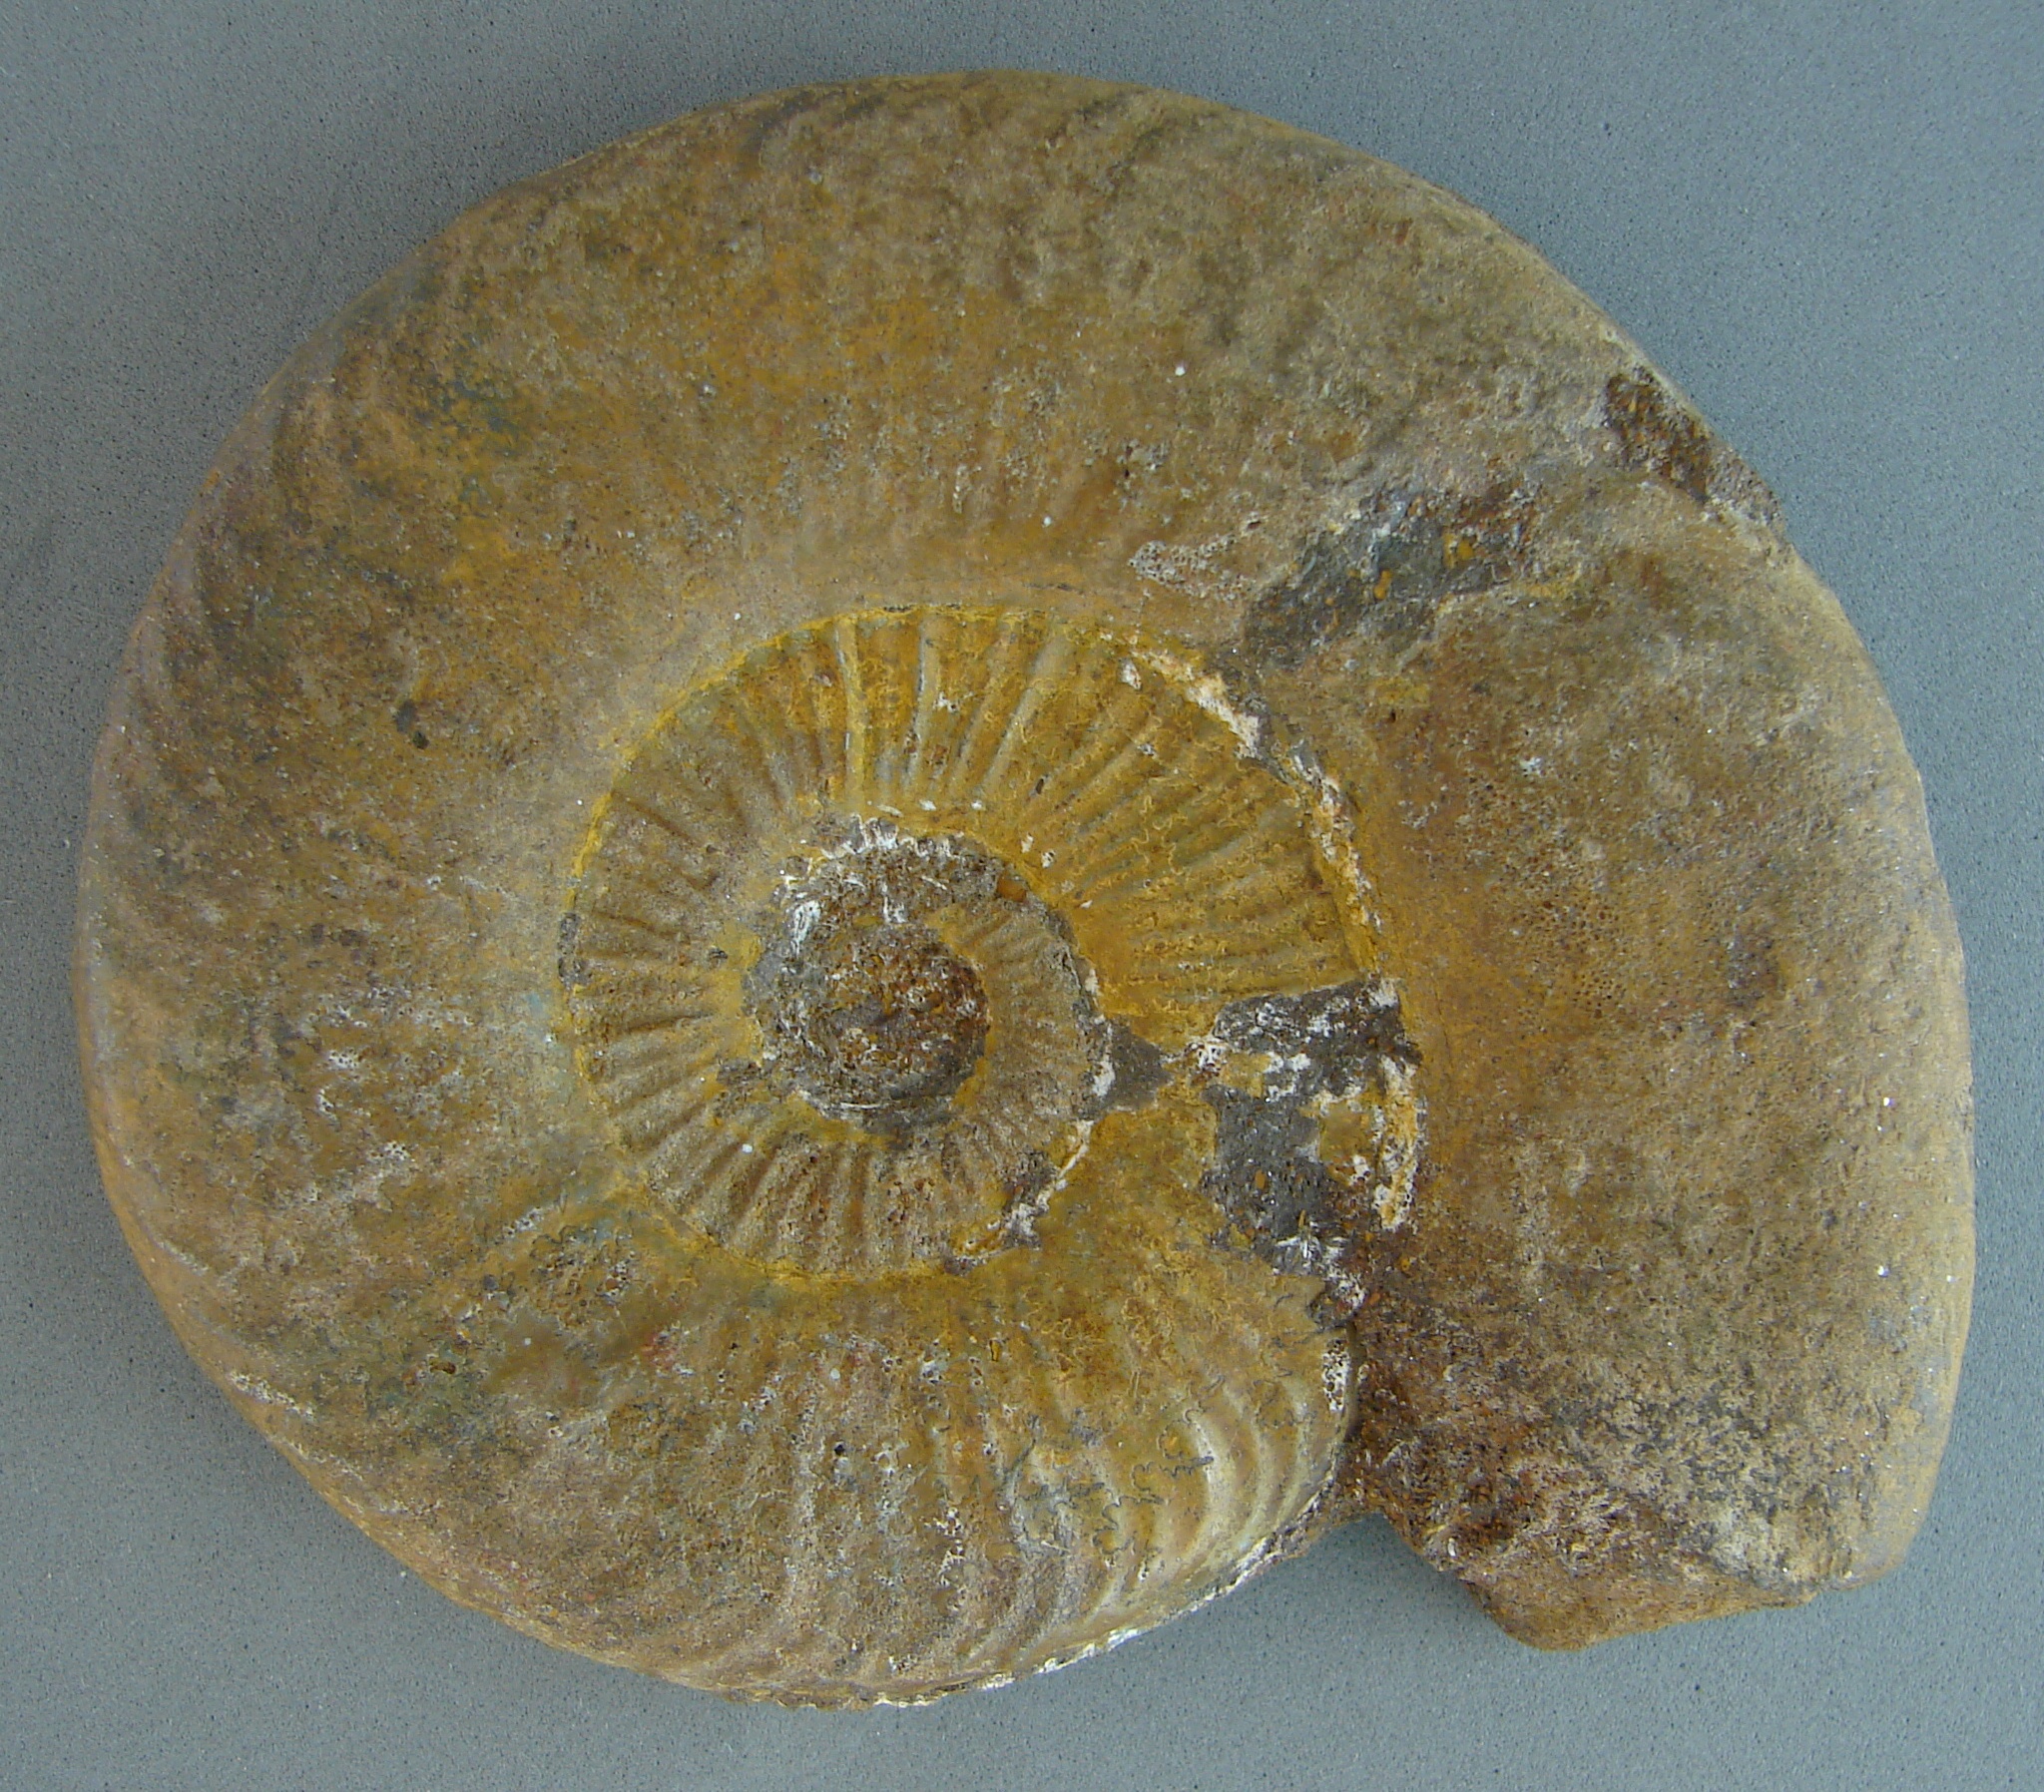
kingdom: Animalia
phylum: Mollusca
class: Cephalopoda
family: Hildoceratidae
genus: Dumortieria
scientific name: Dumortieria
